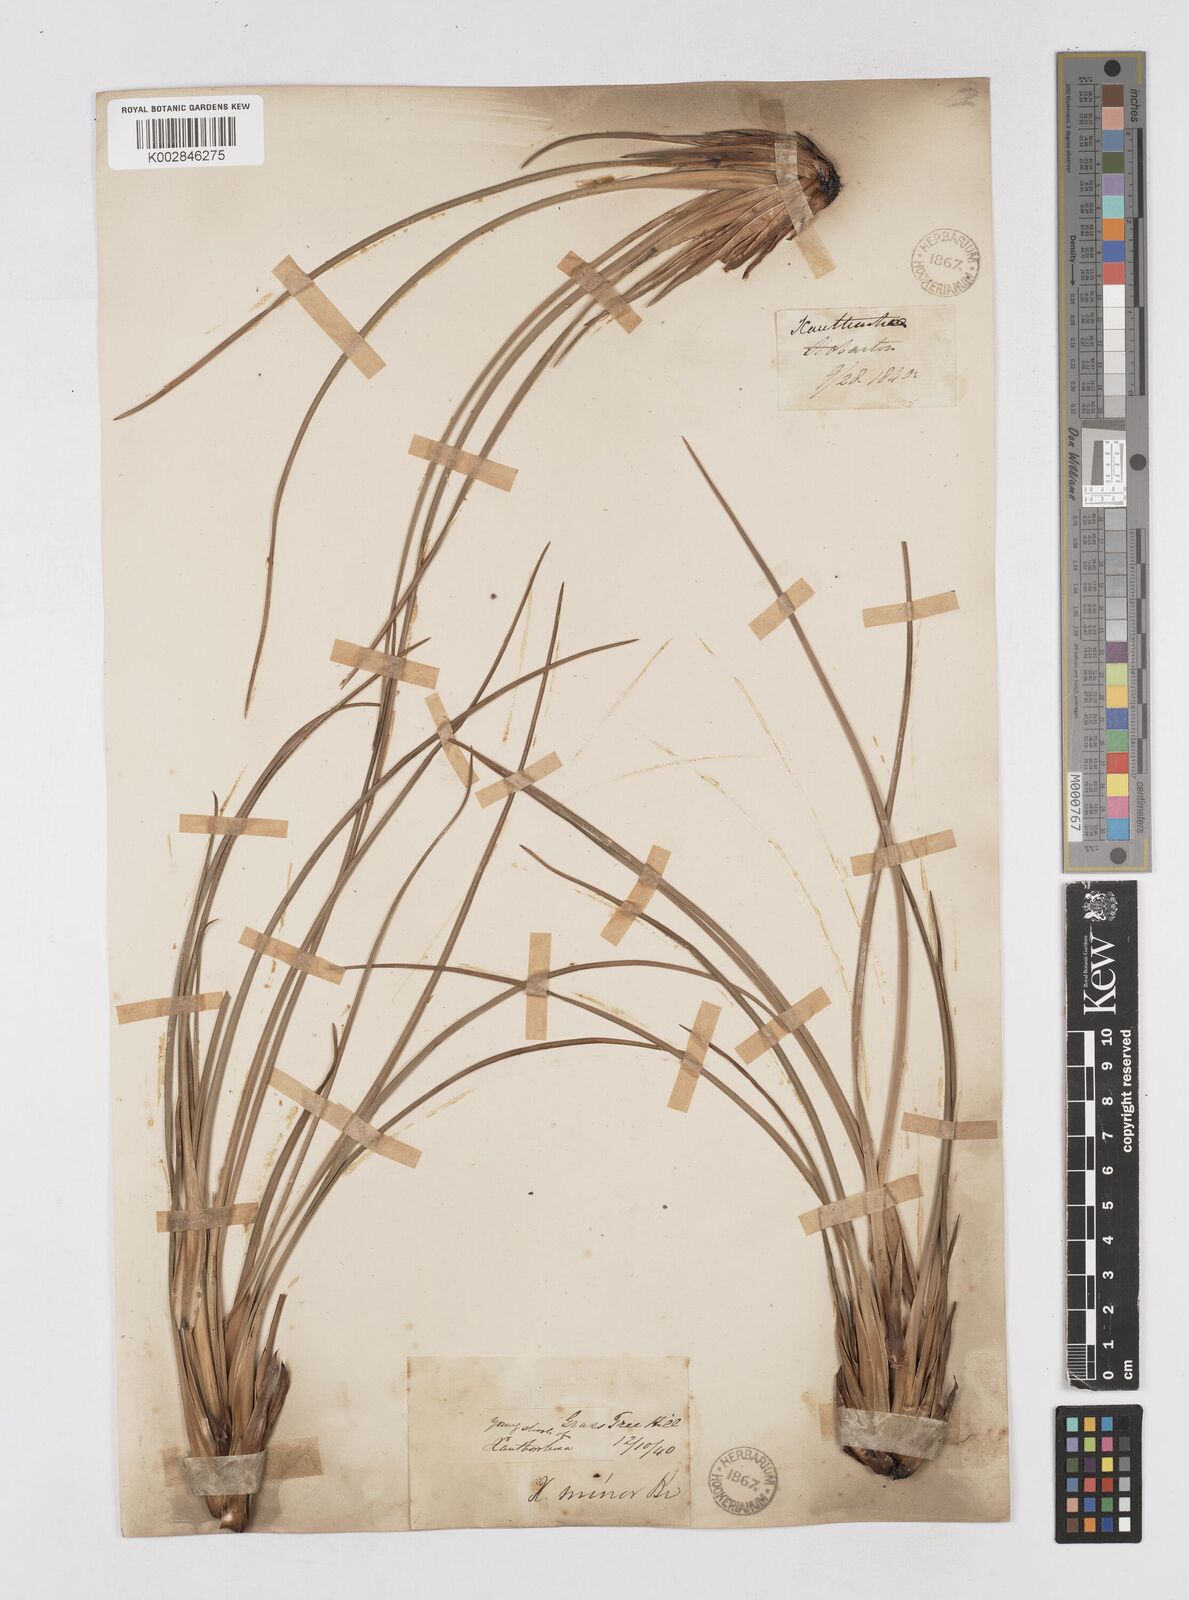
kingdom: Plantae
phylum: Tracheophyta
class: Liliopsida
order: Asparagales
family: Asphodelaceae
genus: Xanthorrhoea
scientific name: Xanthorrhoea minor
